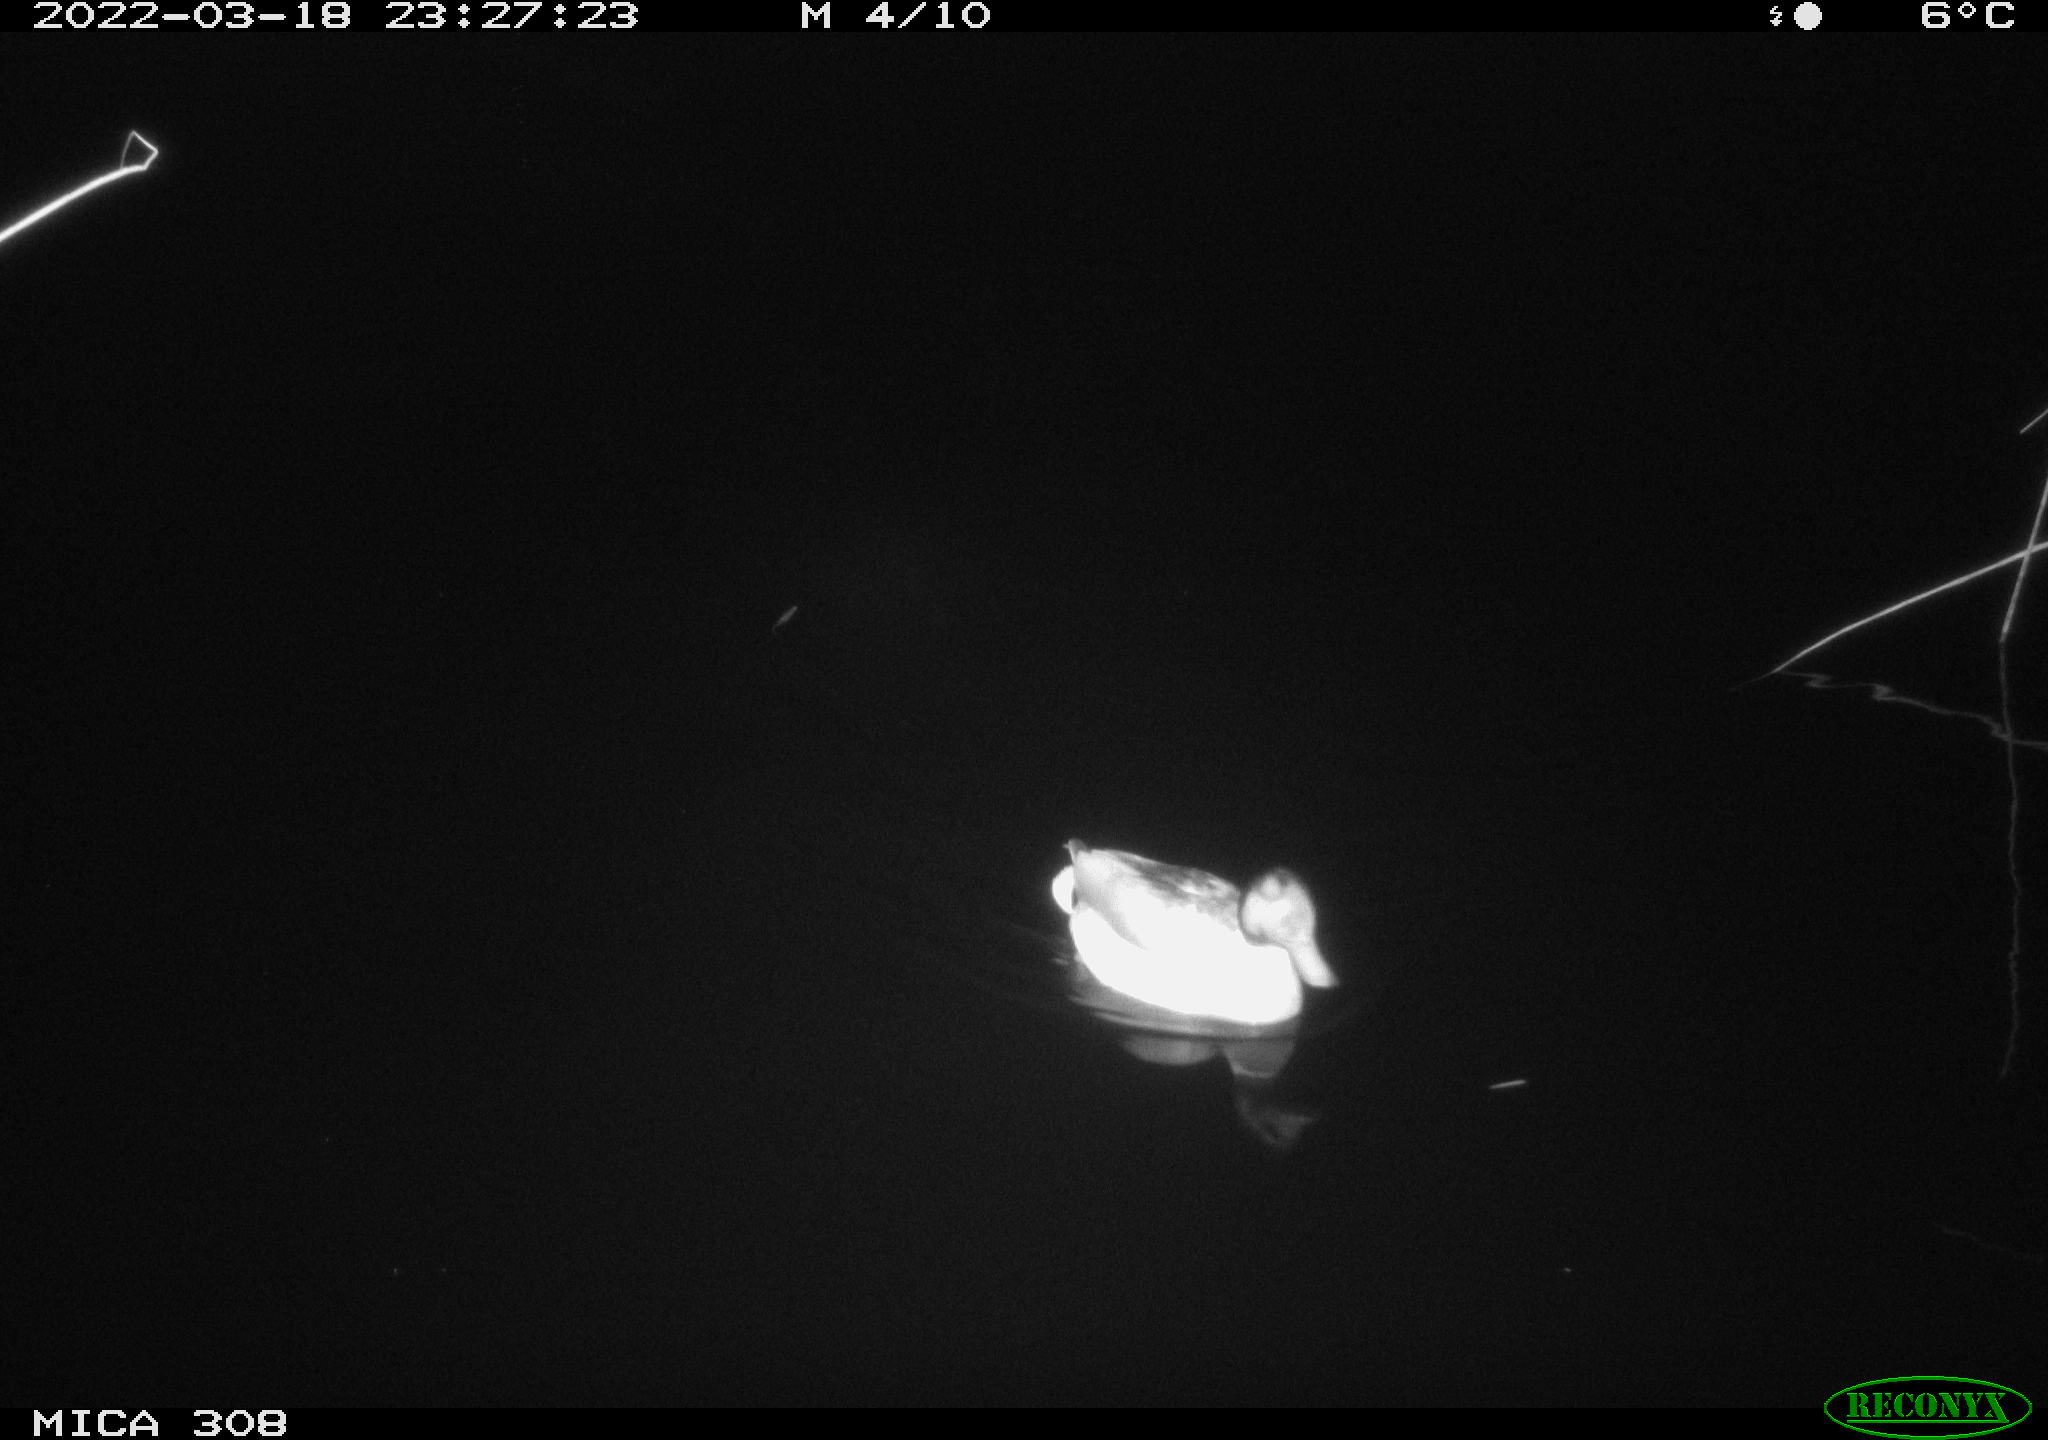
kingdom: Animalia
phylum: Chordata
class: Aves
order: Anseriformes
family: Anatidae
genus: Anas
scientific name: Anas platyrhynchos
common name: Mallard
